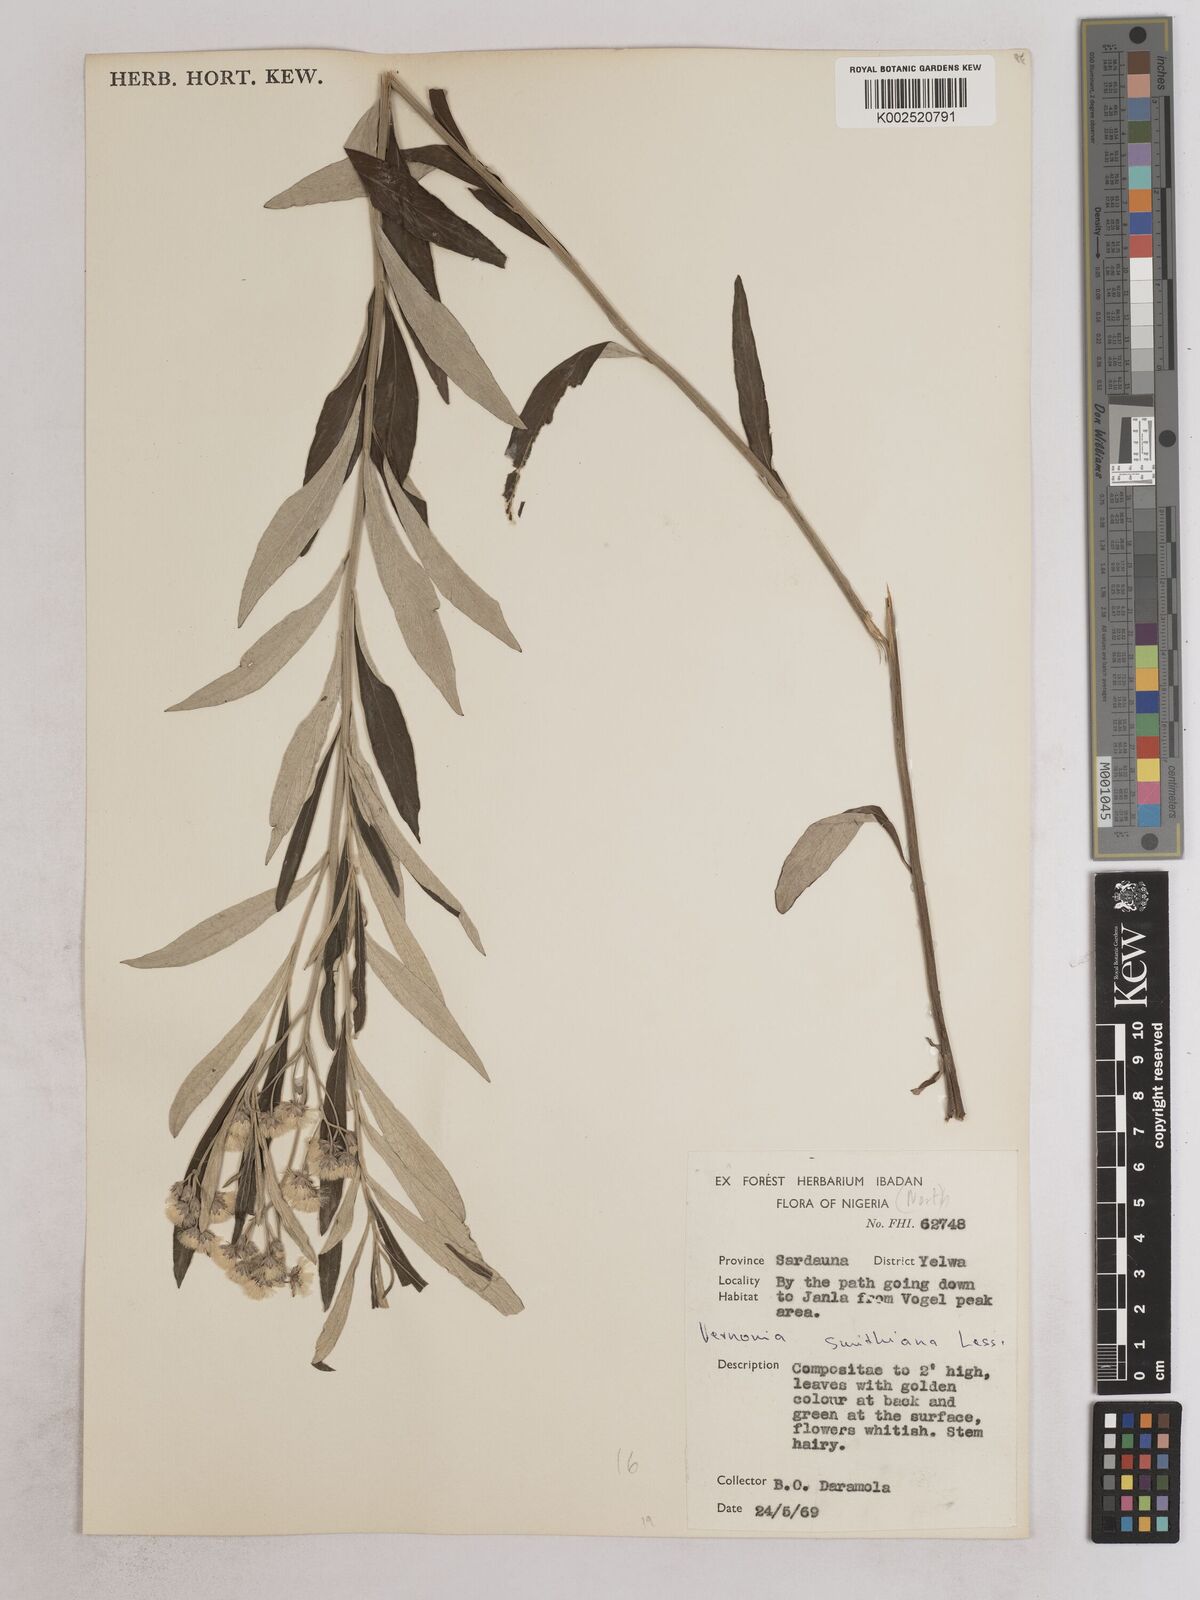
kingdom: Plantae
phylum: Tracheophyta
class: Magnoliopsida
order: Asterales
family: Asteraceae
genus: Hilliardiella
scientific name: Hilliardiella smithiana
